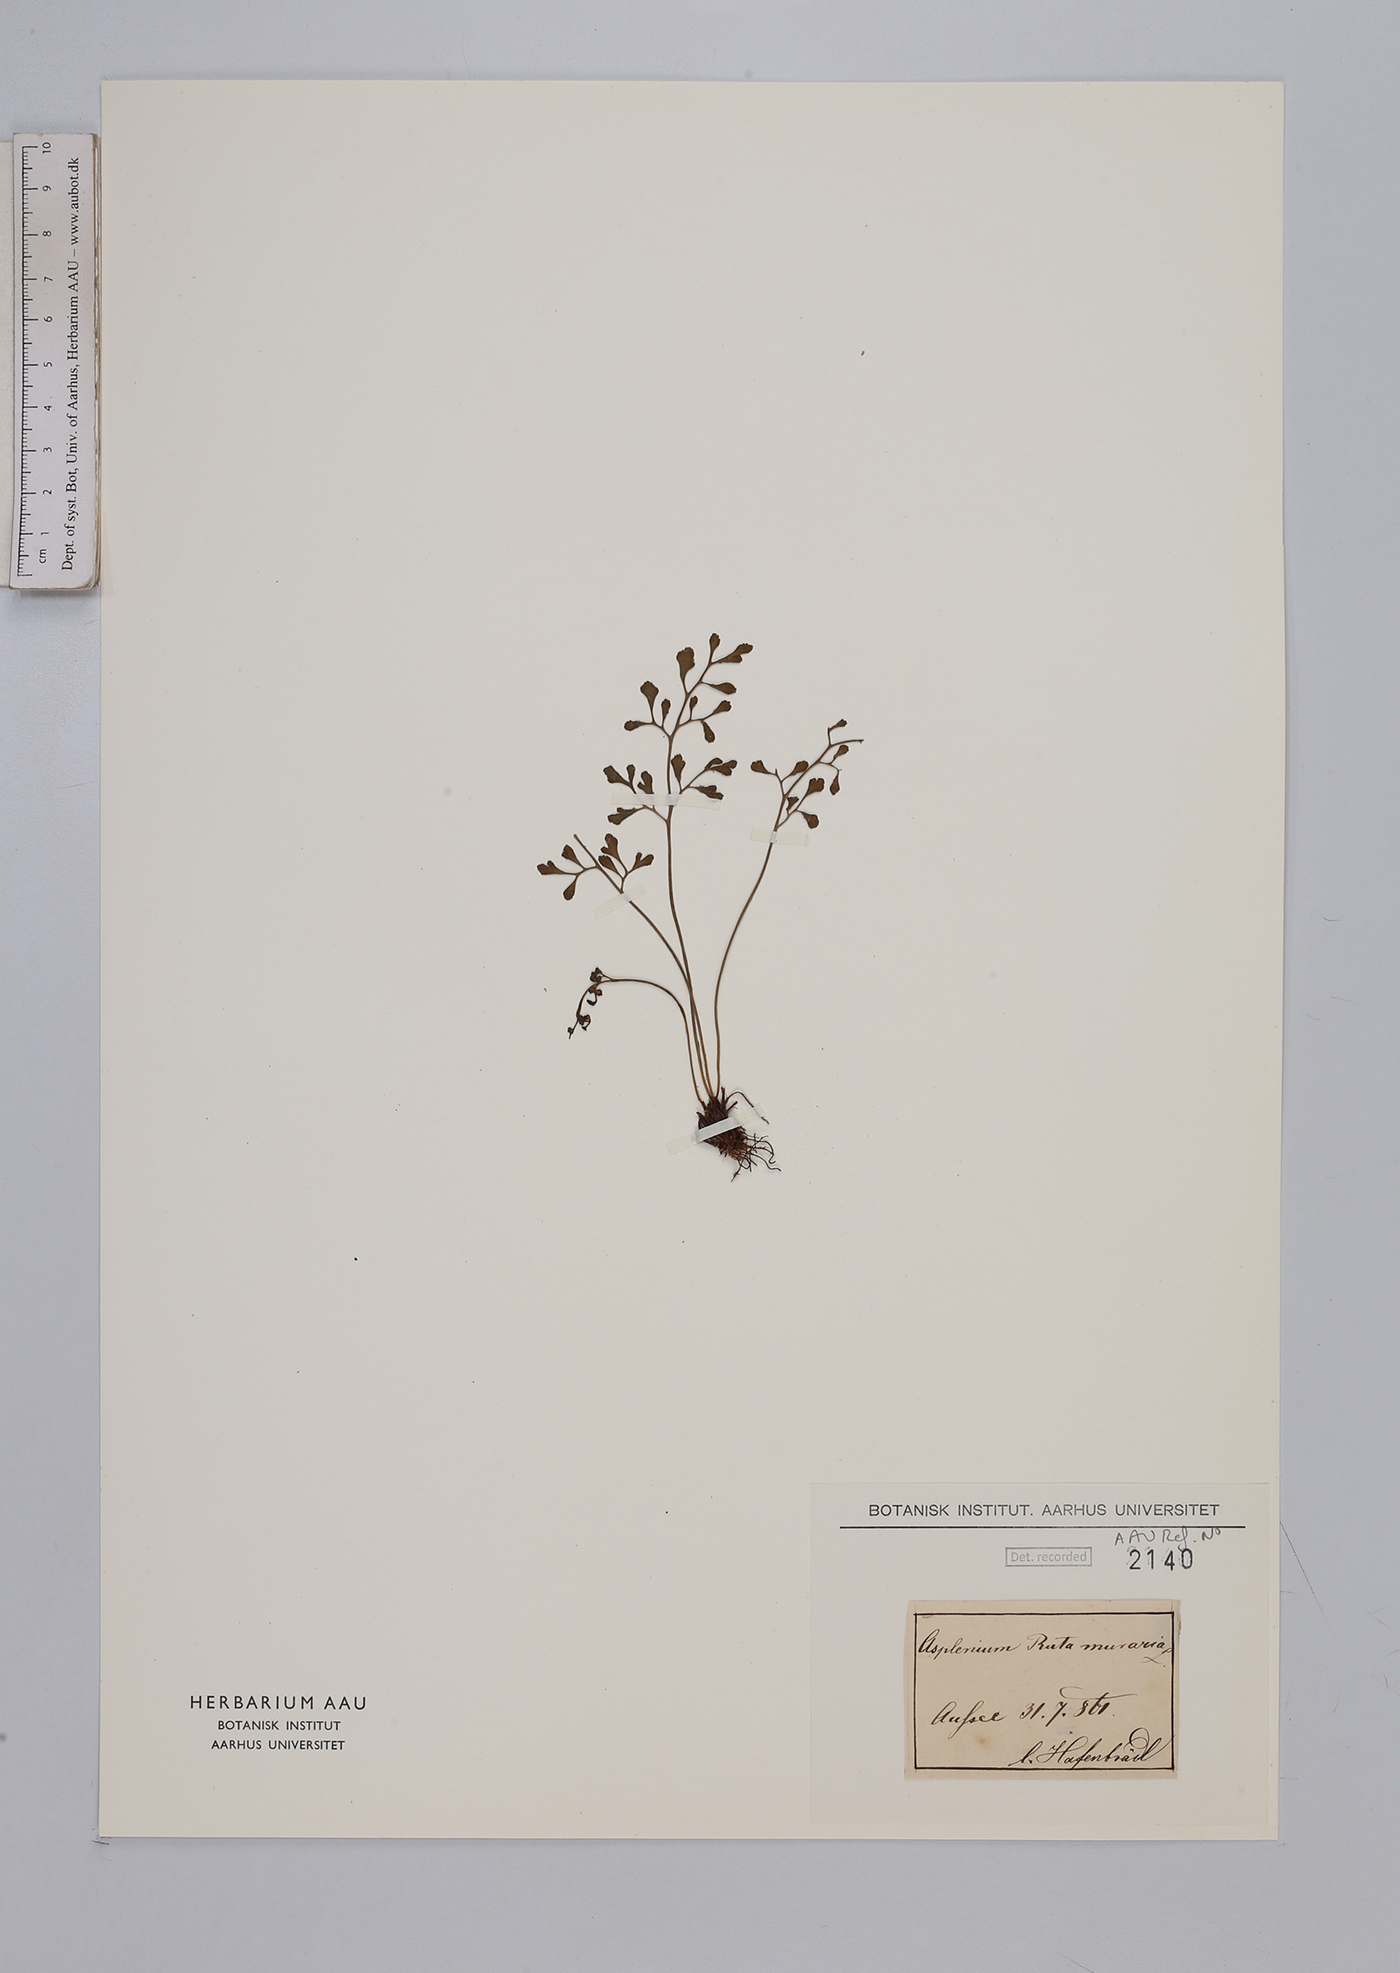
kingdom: Plantae
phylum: Tracheophyta
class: Polypodiopsida
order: Polypodiales
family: Aspleniaceae
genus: Asplenium
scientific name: Asplenium ruta-muraria
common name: Wall-rue
